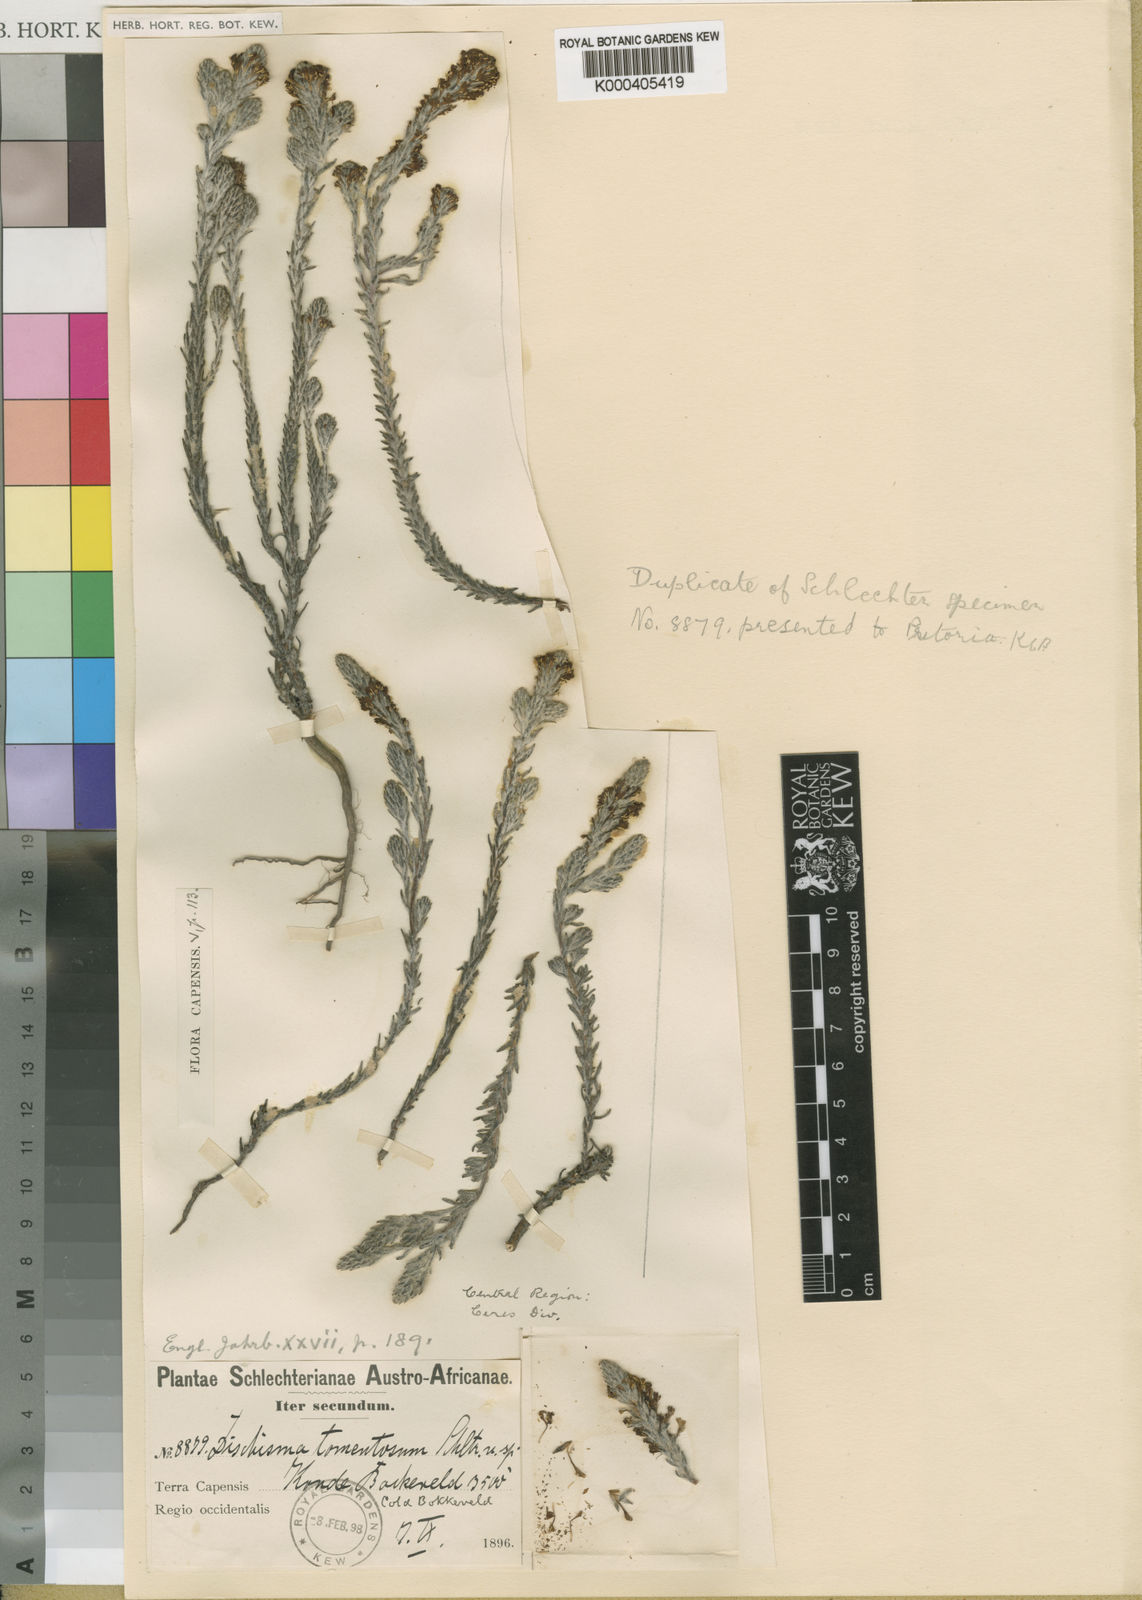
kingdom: Plantae
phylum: Tracheophyta
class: Magnoliopsida
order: Lamiales
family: Scrophulariaceae
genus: Dischisma
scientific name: Dischisma tomentosum
